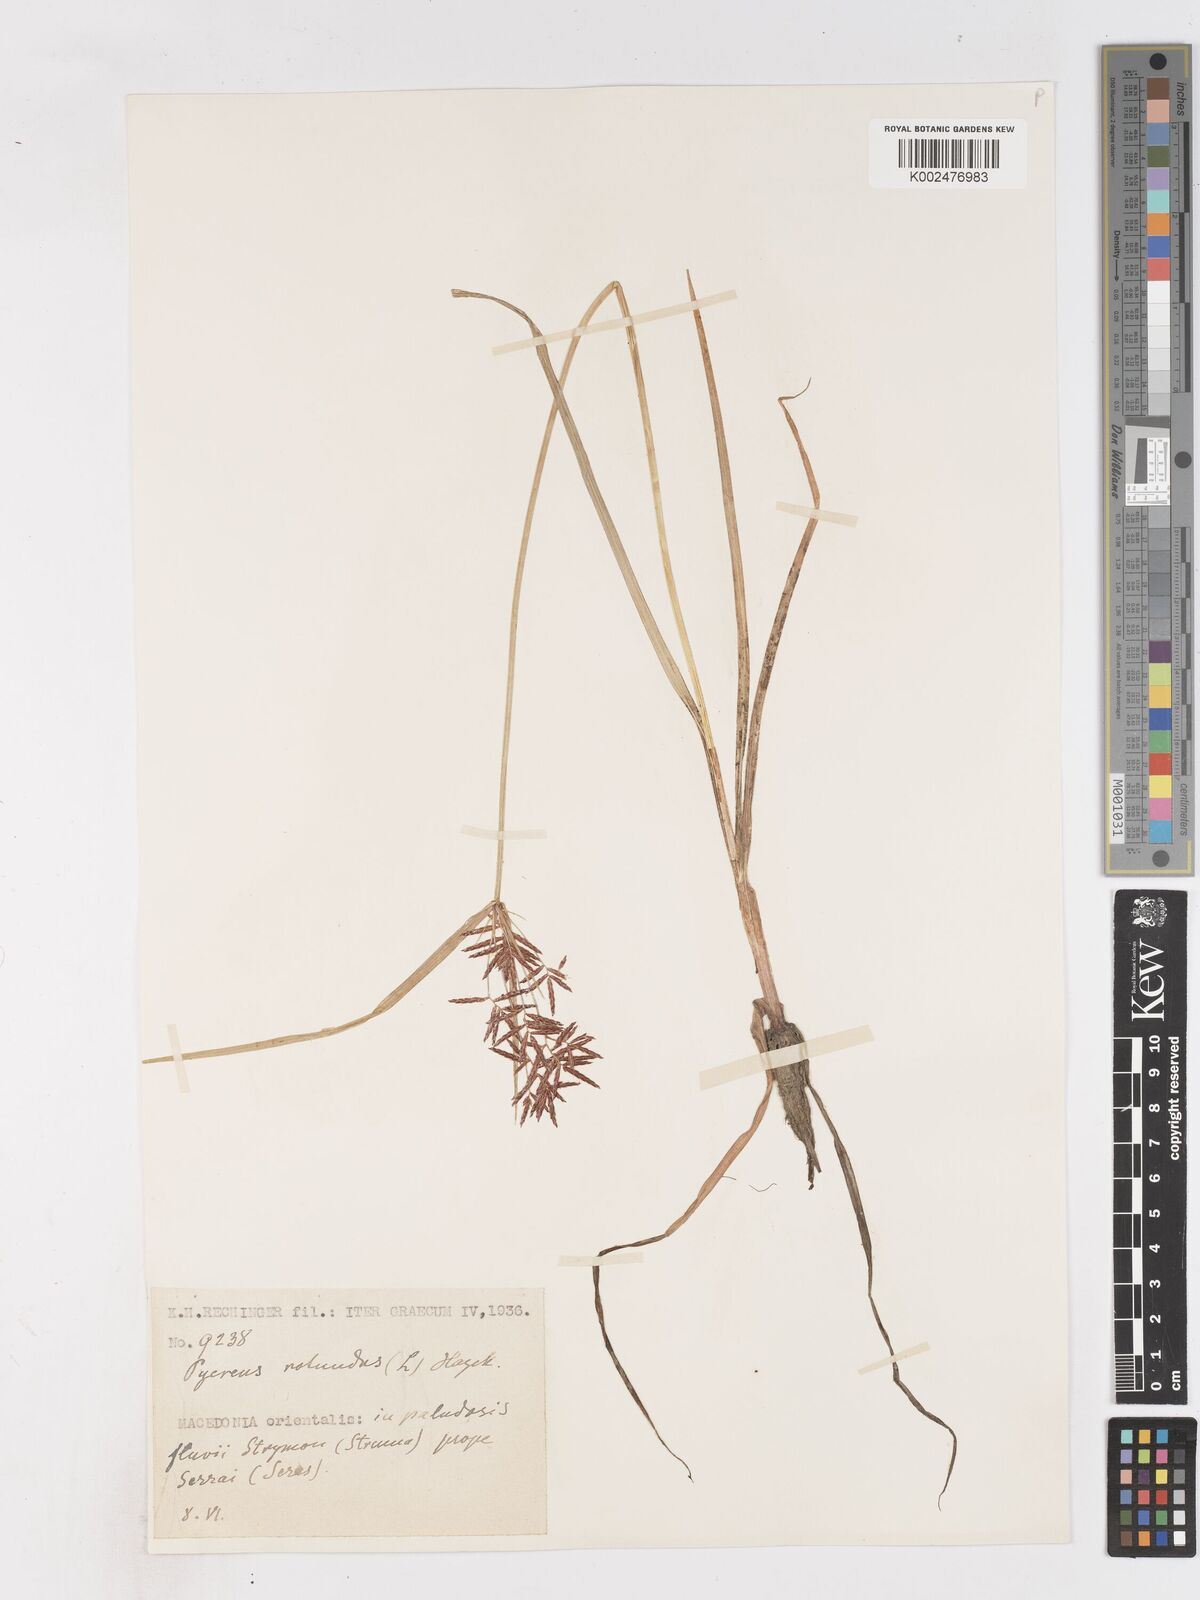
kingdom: Plantae
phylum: Tracheophyta
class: Liliopsida
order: Poales
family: Cyperaceae
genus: Cyperus
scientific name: Cyperus rotundus
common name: Nutgrass
